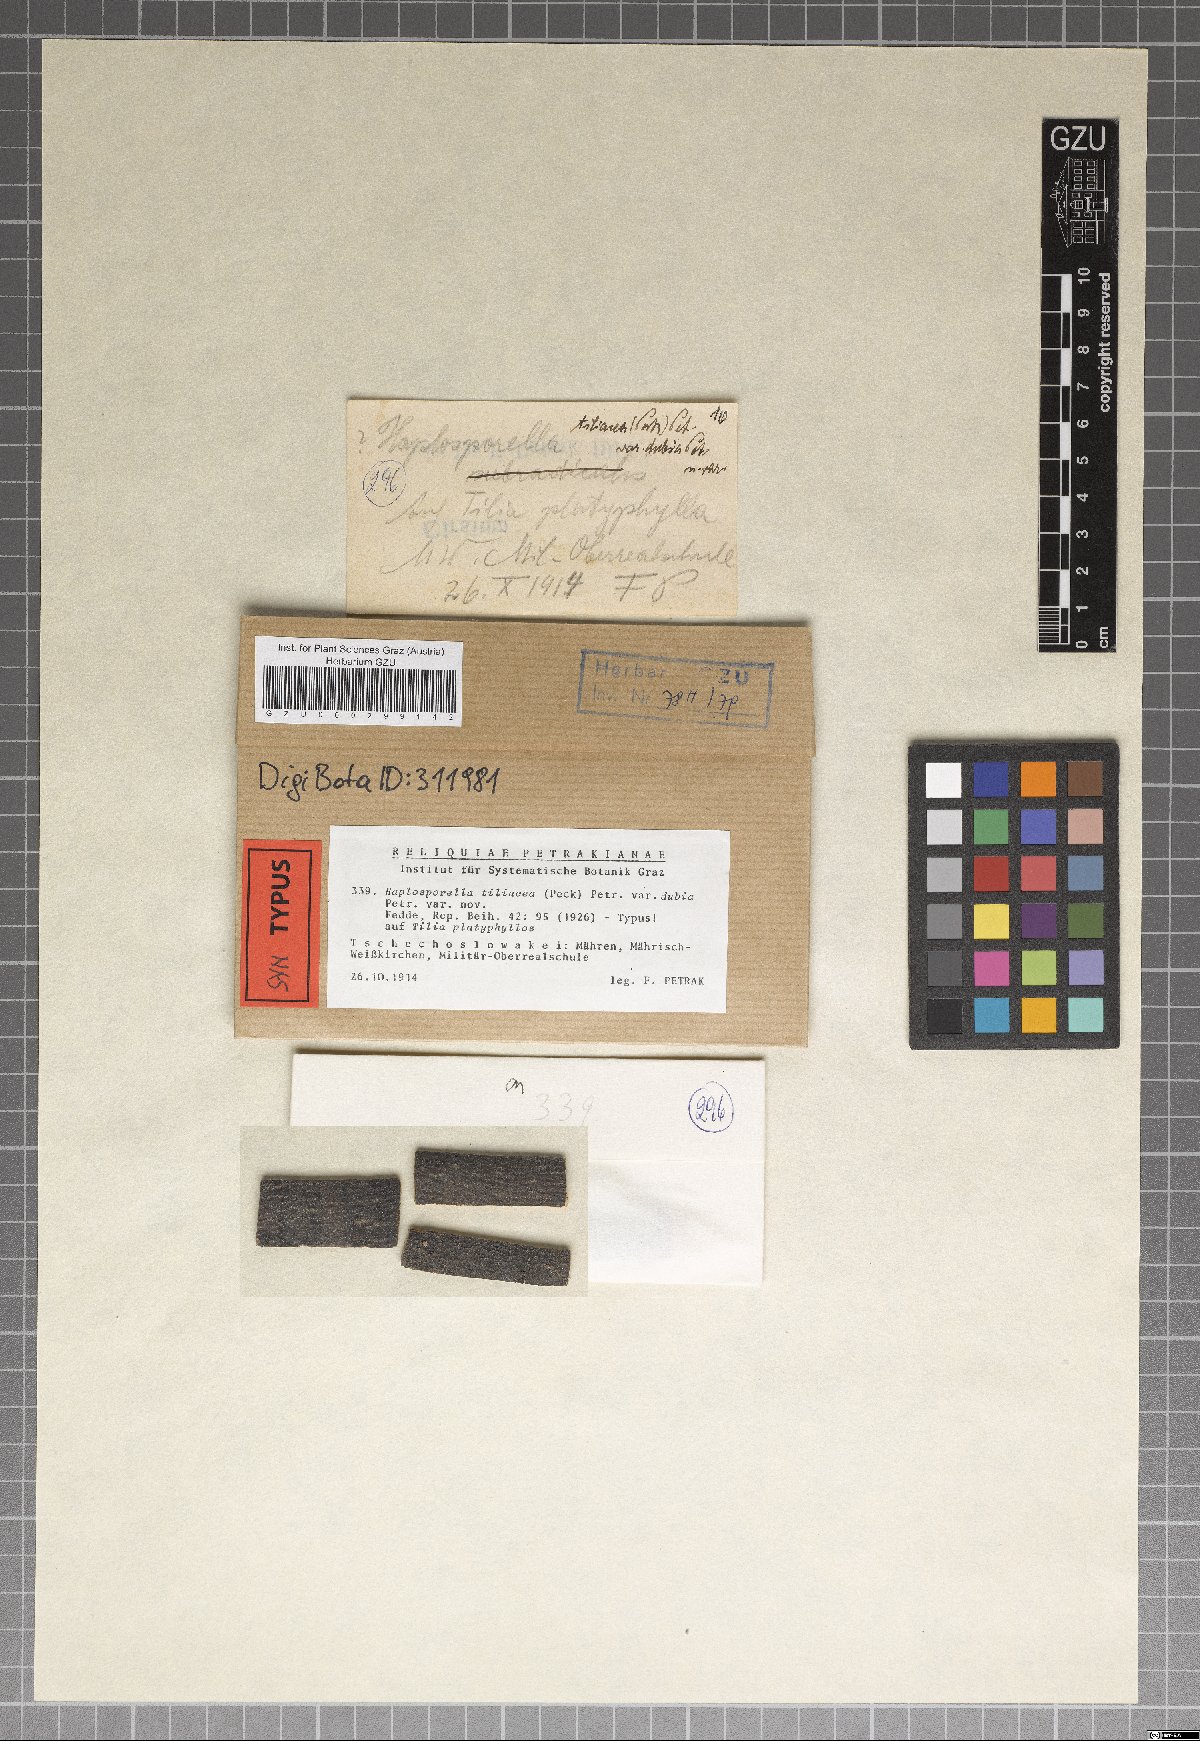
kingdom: Fungi
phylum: Ascomycota
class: Dothideomycetes
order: Botryosphaeriales
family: Aplosporellaceae
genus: Aplosporella
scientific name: Aplosporella tiliacea
